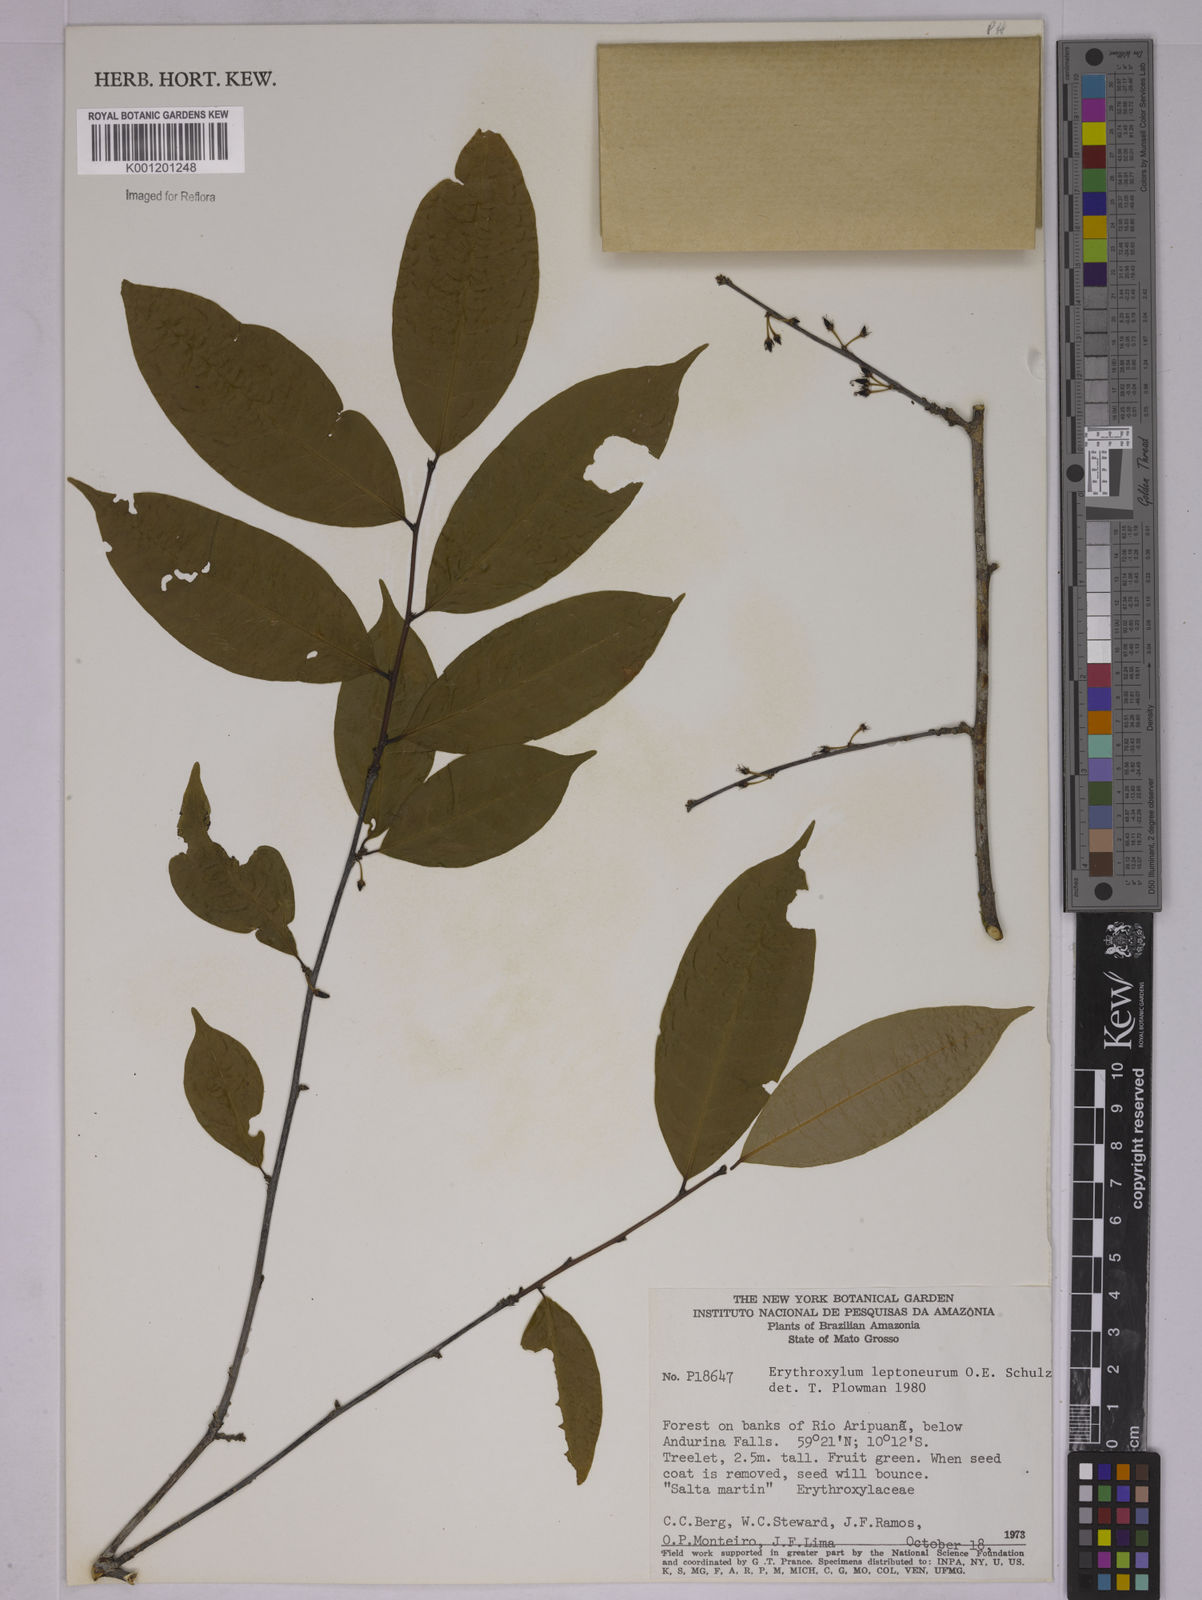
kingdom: Plantae
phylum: Tracheophyta
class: Magnoliopsida
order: Malpighiales
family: Erythroxylaceae
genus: Erythroxylum
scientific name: Erythroxylum leptoneurum
